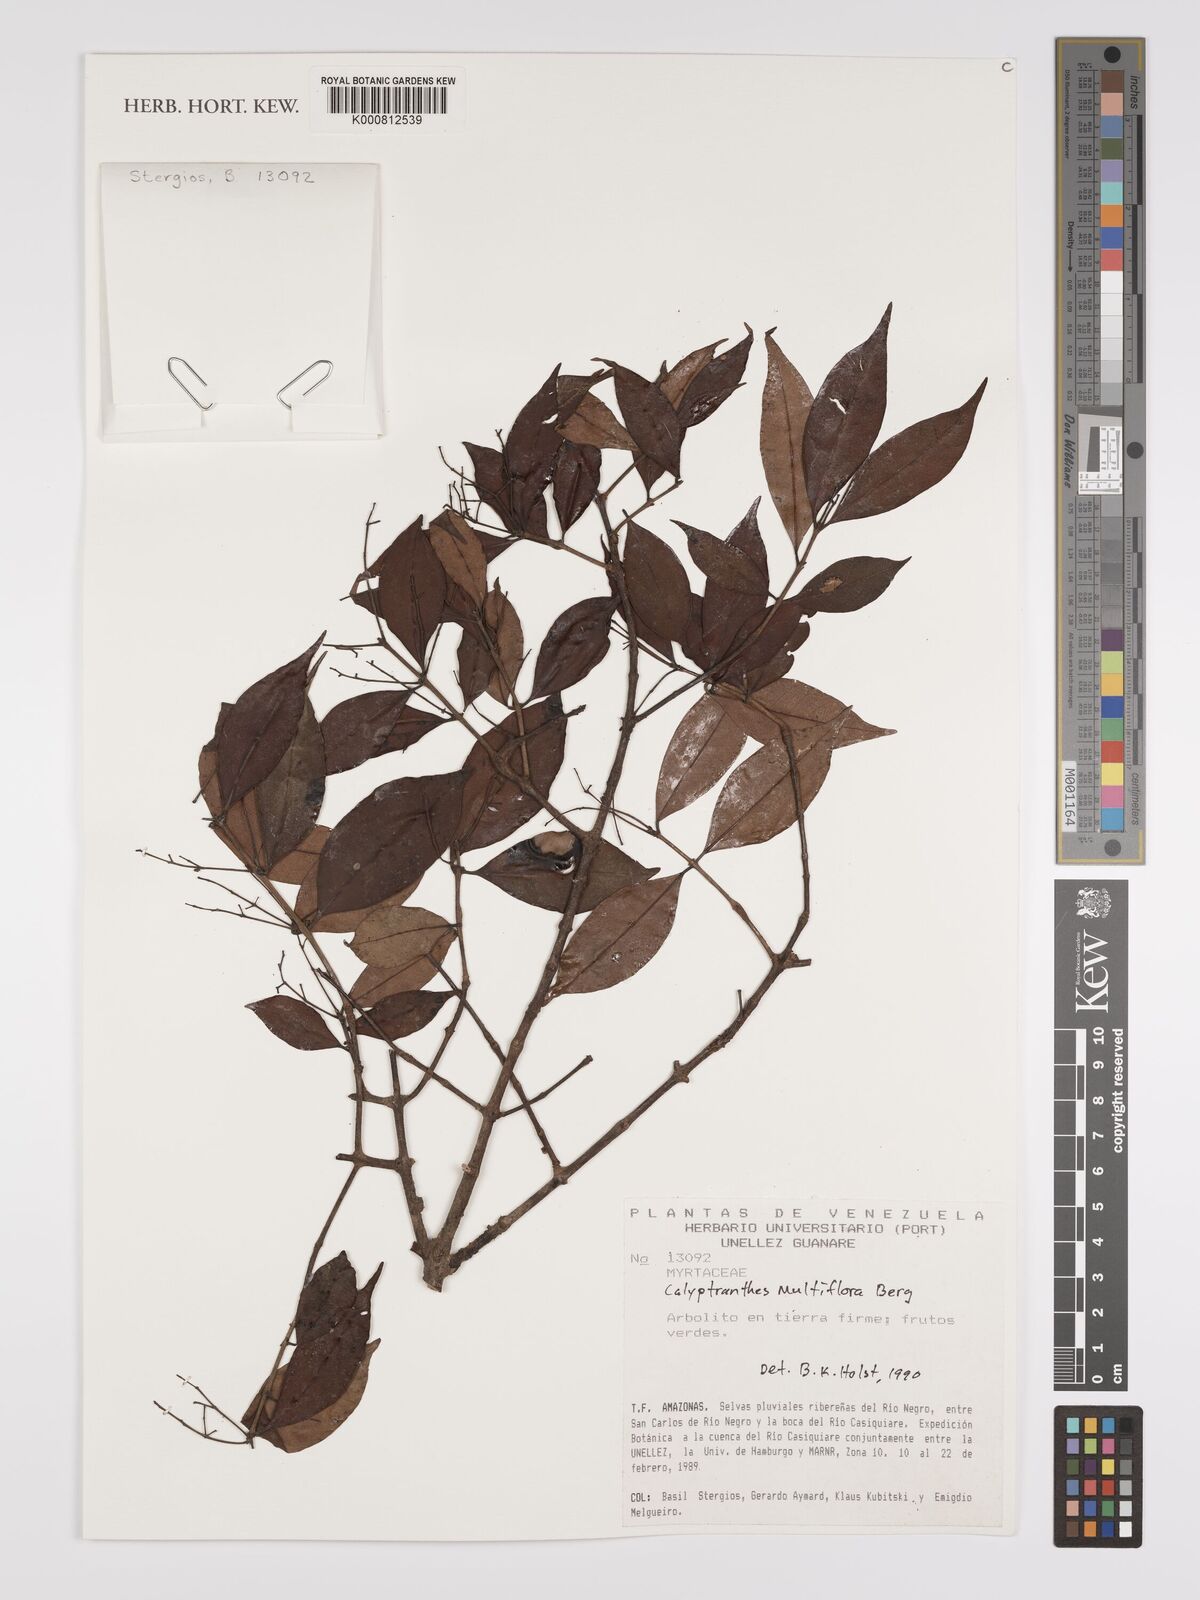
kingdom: Plantae
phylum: Tracheophyta
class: Magnoliopsida
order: Myrtales
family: Myrtaceae
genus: Myrcia
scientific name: Myrcia aulomyrcioides
